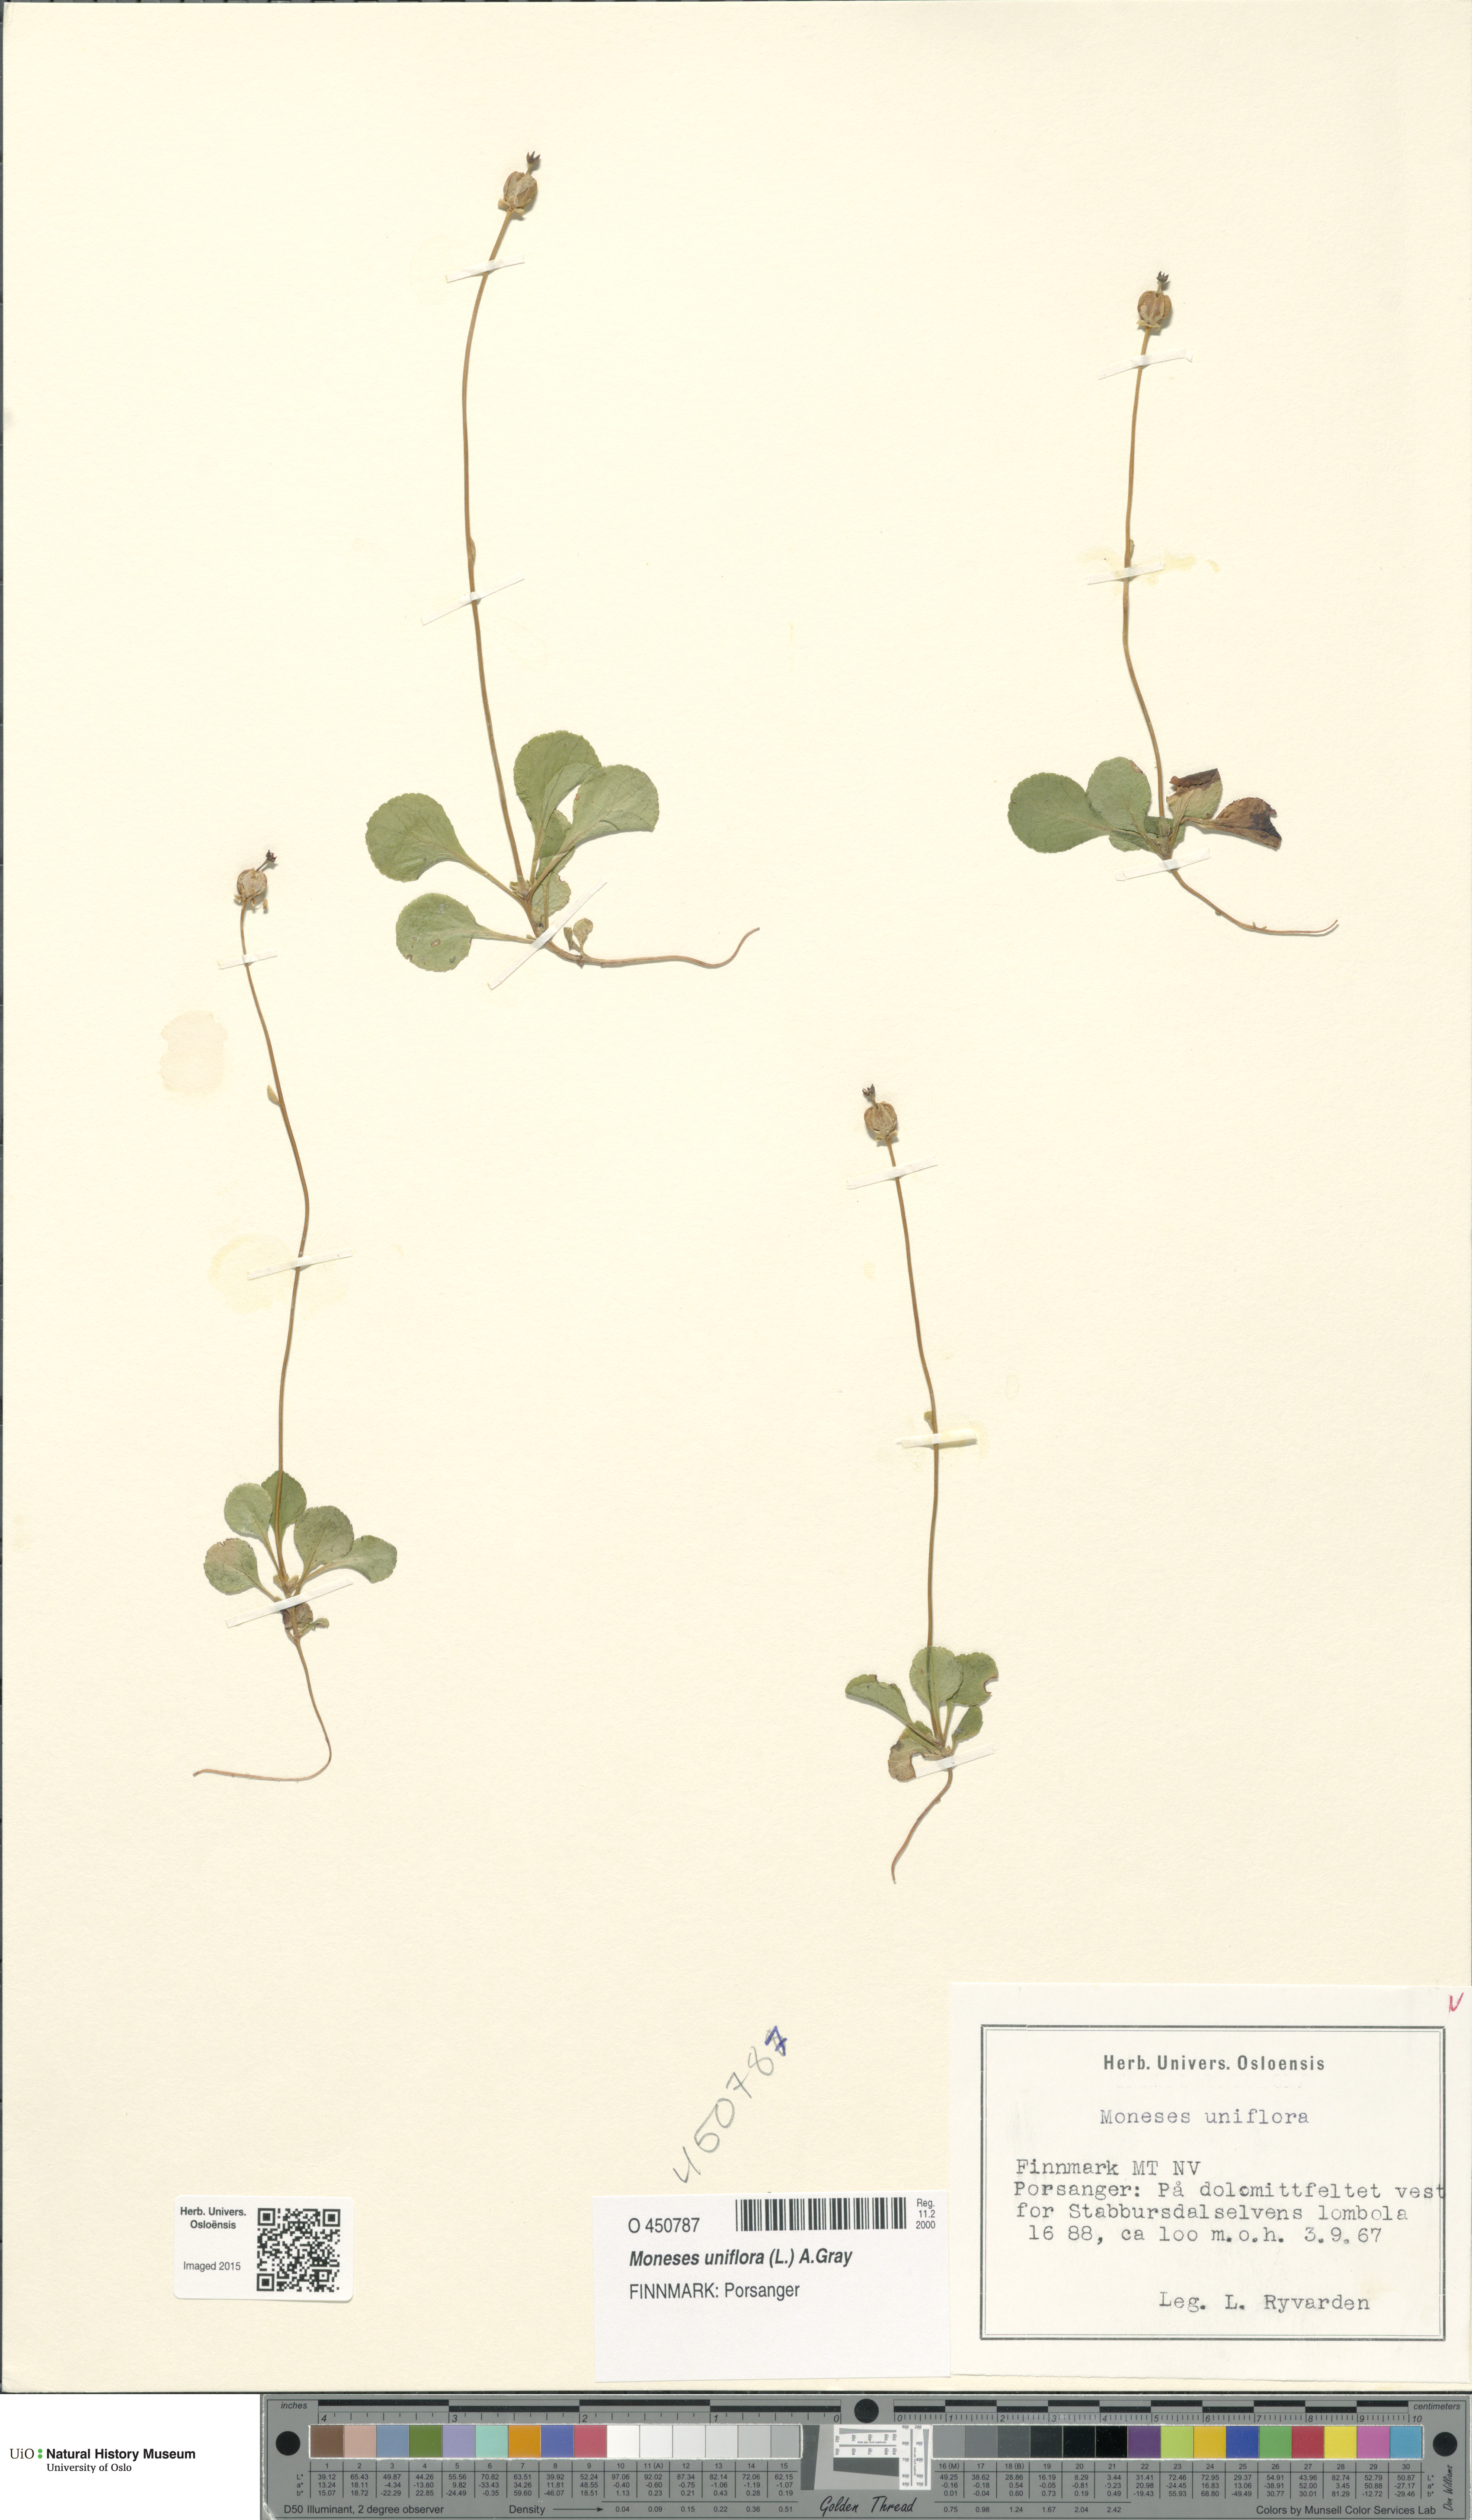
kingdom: Plantae
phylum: Tracheophyta
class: Magnoliopsida
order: Ericales
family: Ericaceae
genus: Moneses
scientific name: Moneses uniflora
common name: One-flowered wintergreen
